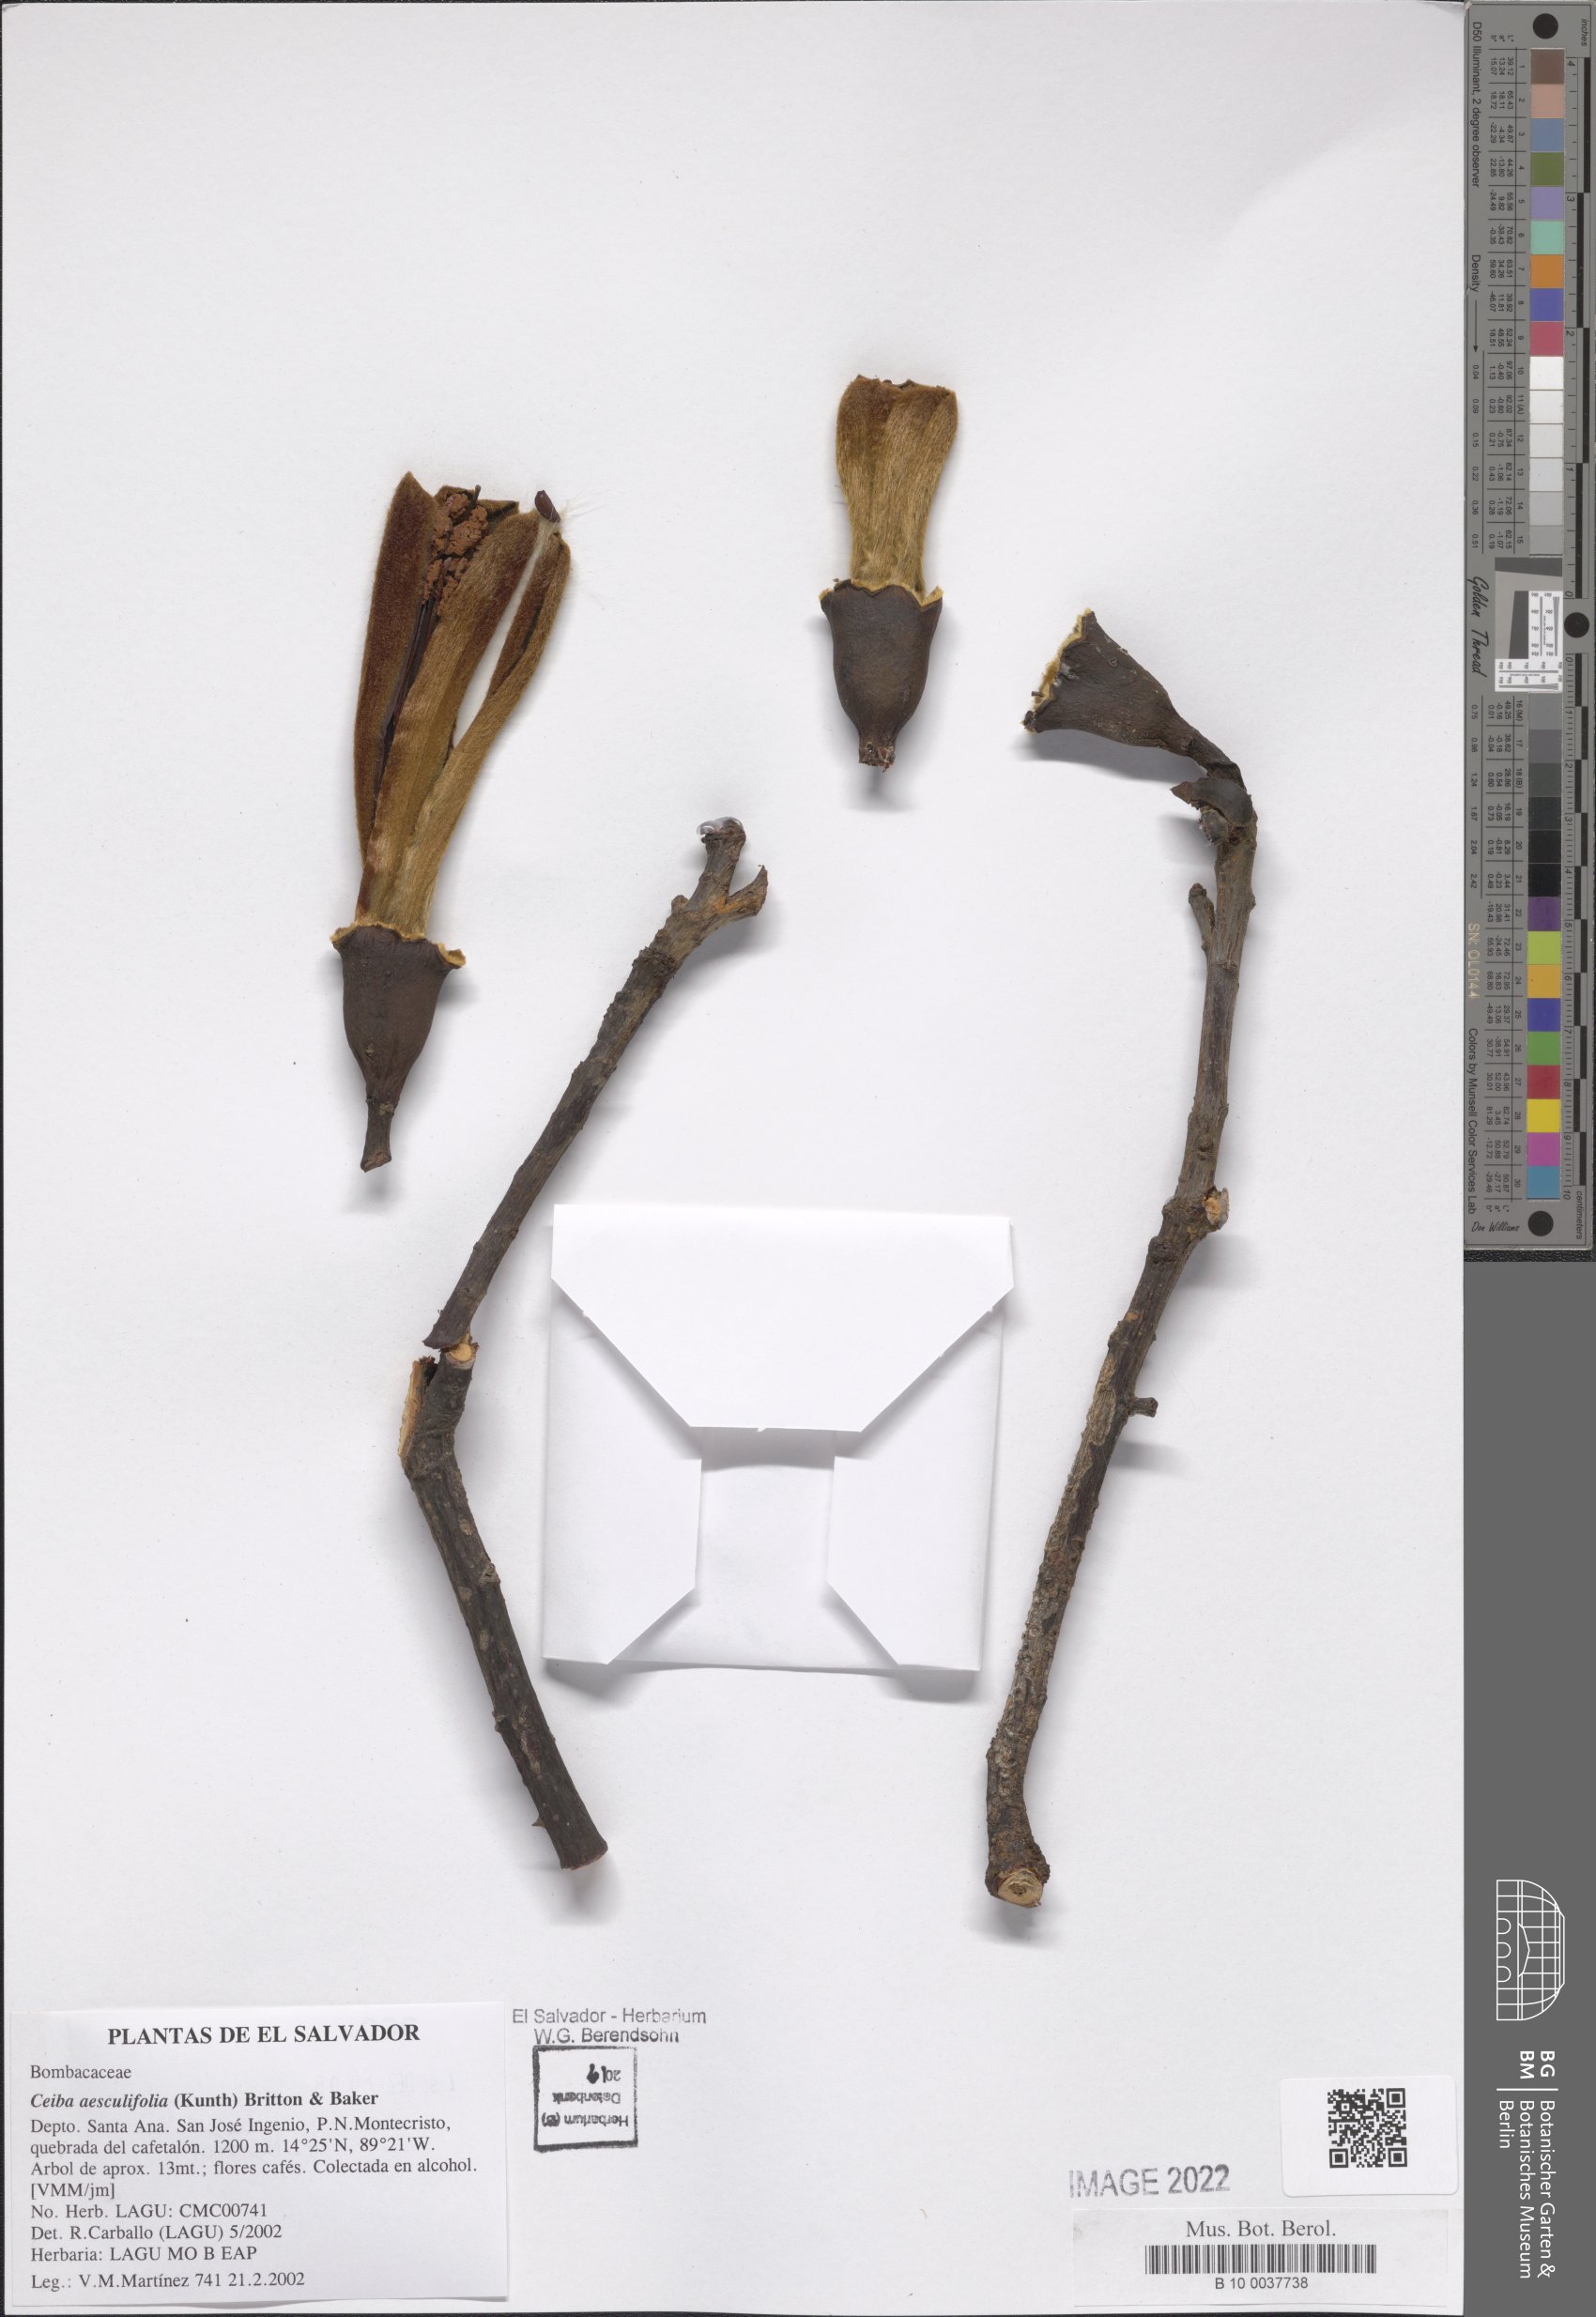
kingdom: Plantae
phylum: Tracheophyta
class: Magnoliopsida
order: Malvales
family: Malvaceae
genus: Ceiba
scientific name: Ceiba aesculifolia
